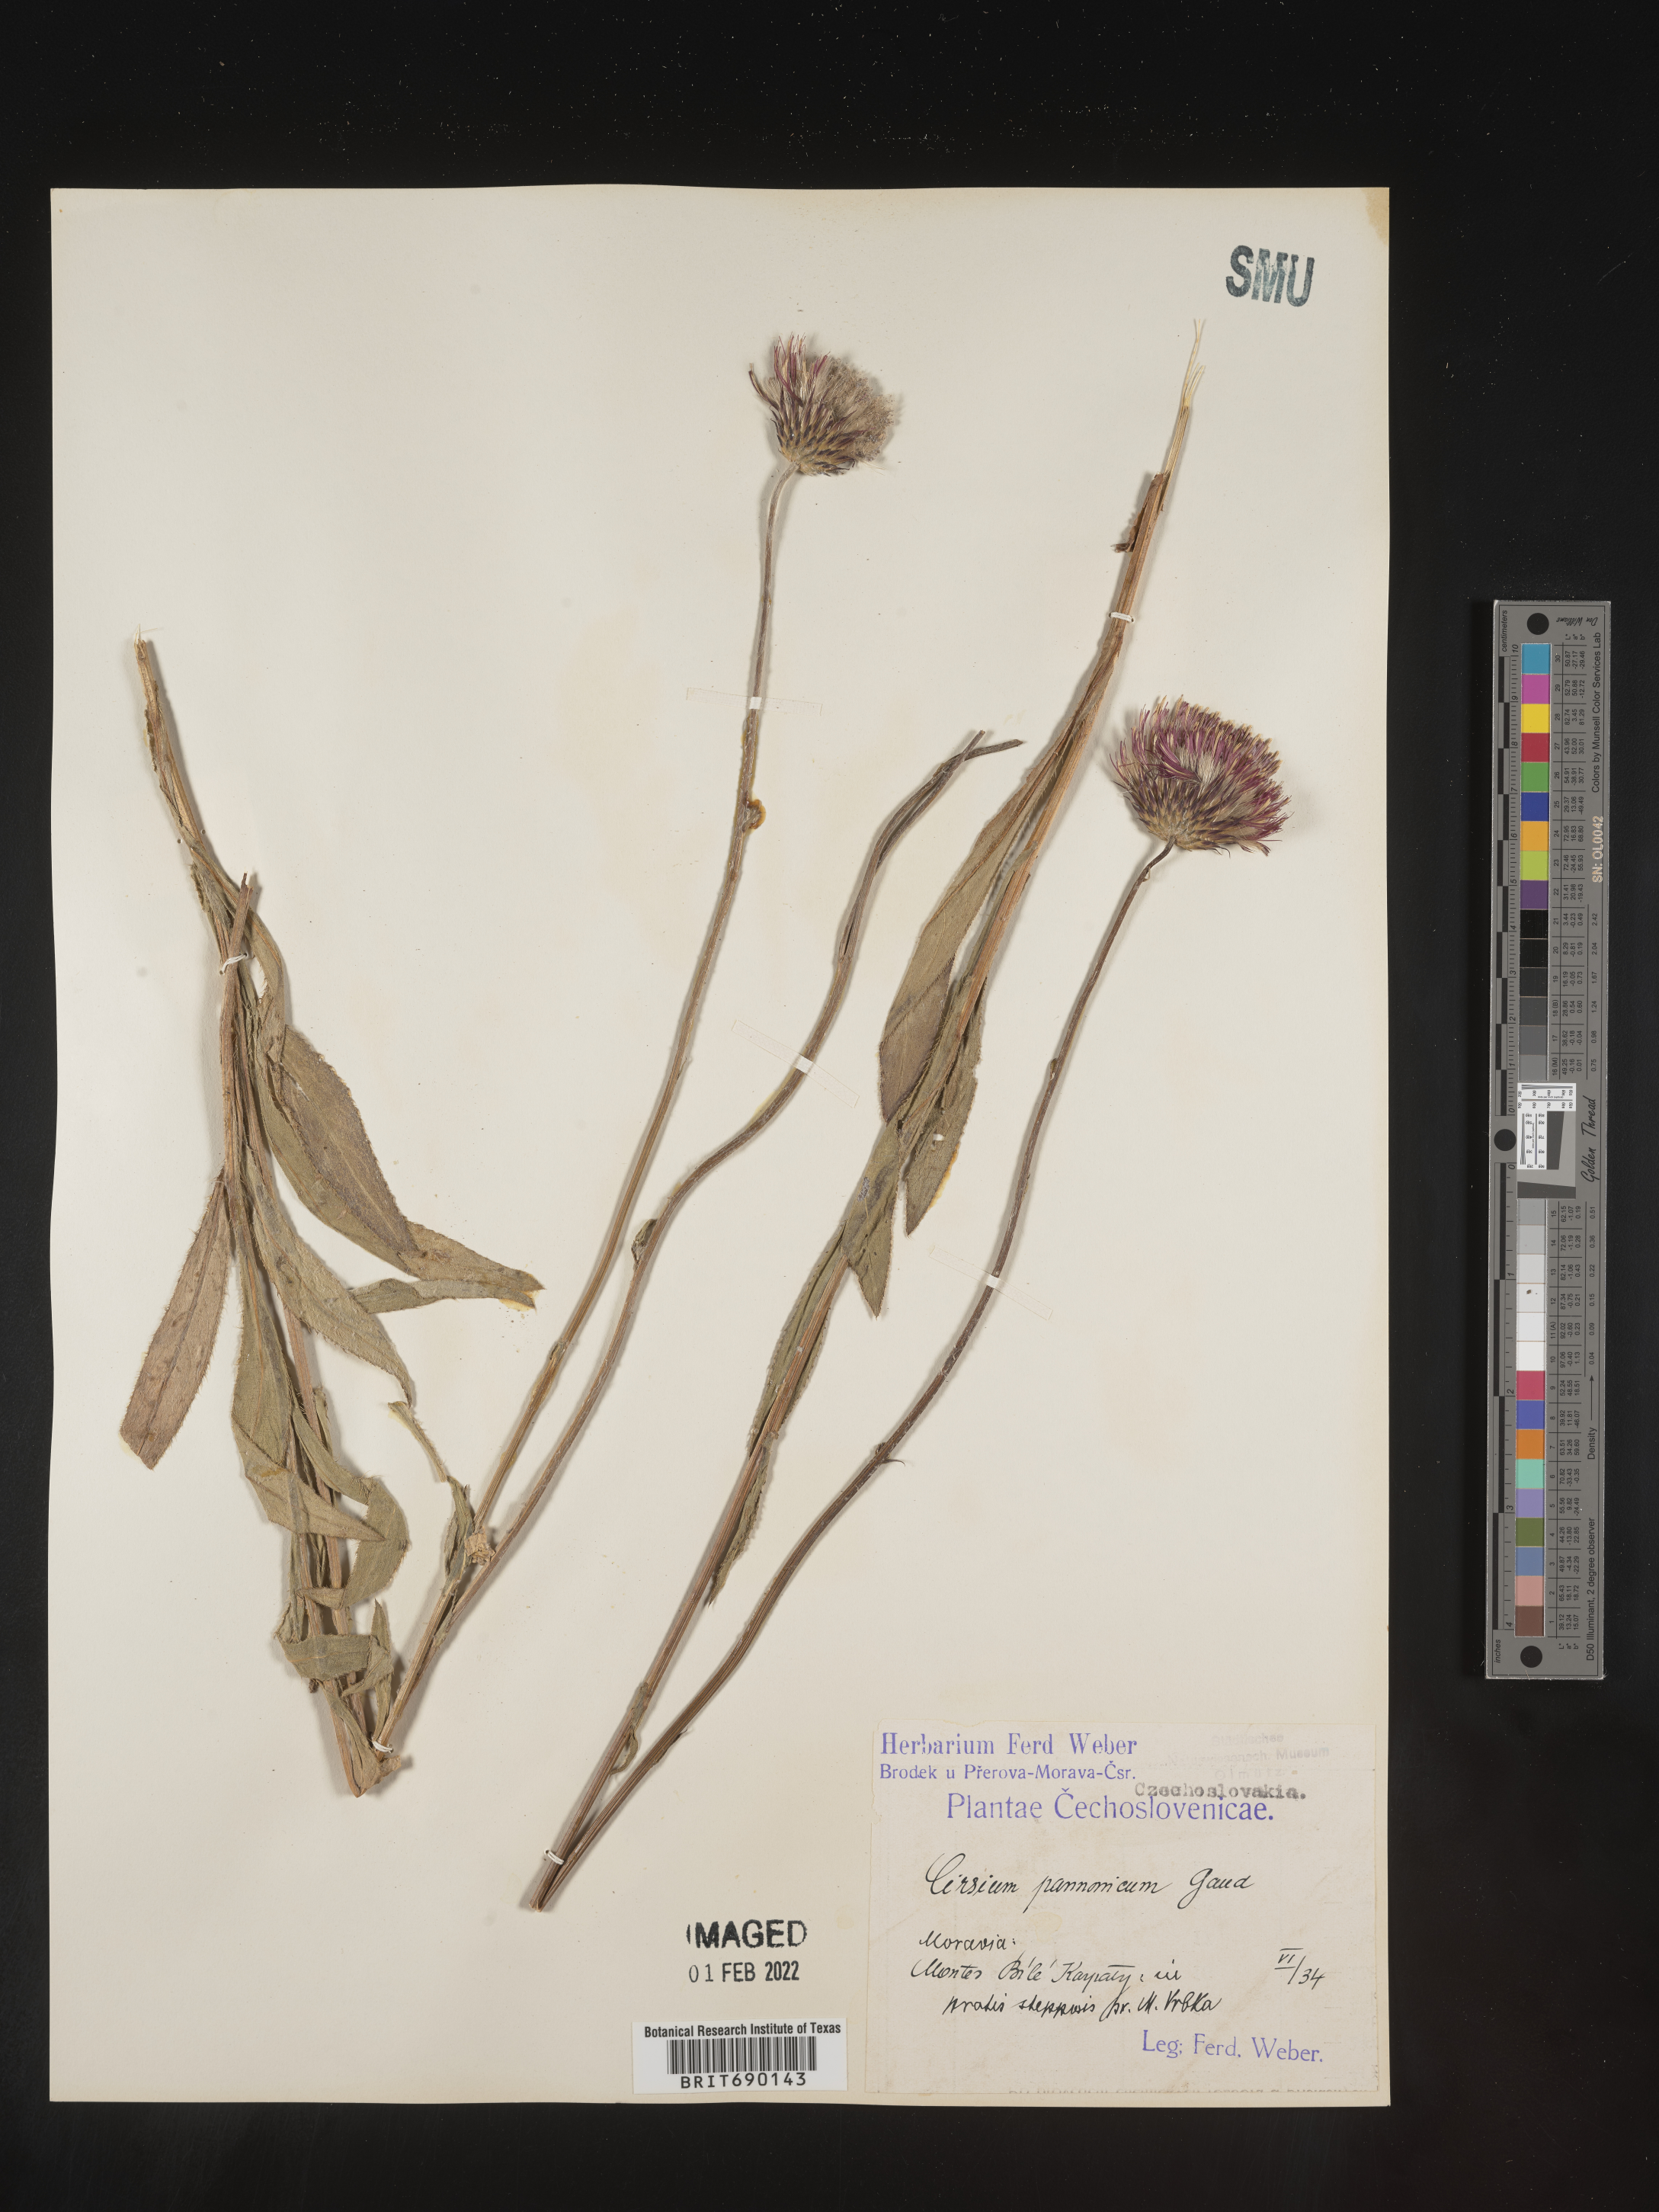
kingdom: Plantae
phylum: Tracheophyta
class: Magnoliopsida
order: Asterales
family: Asteraceae
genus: Cirsium
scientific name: Cirsium
